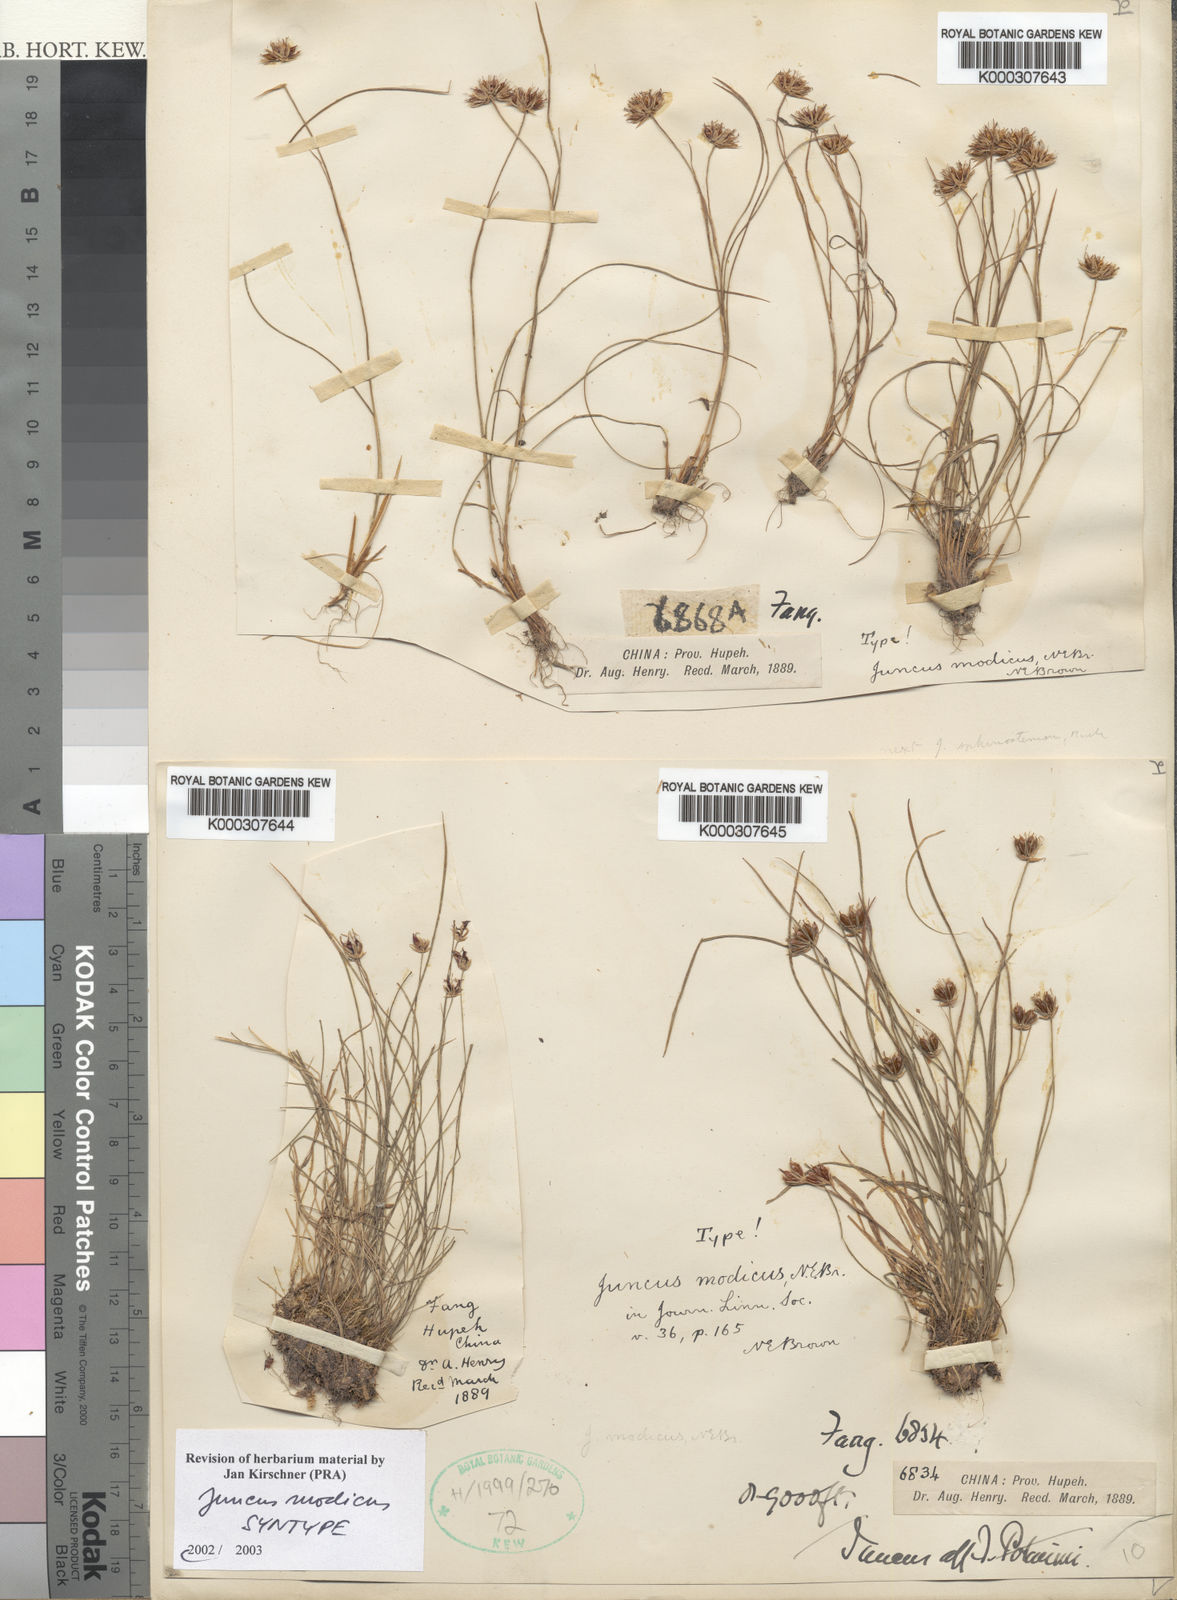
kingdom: Plantae
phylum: Tracheophyta
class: Liliopsida
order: Poales
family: Juncaceae
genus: Juncus
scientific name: Juncus modicus
